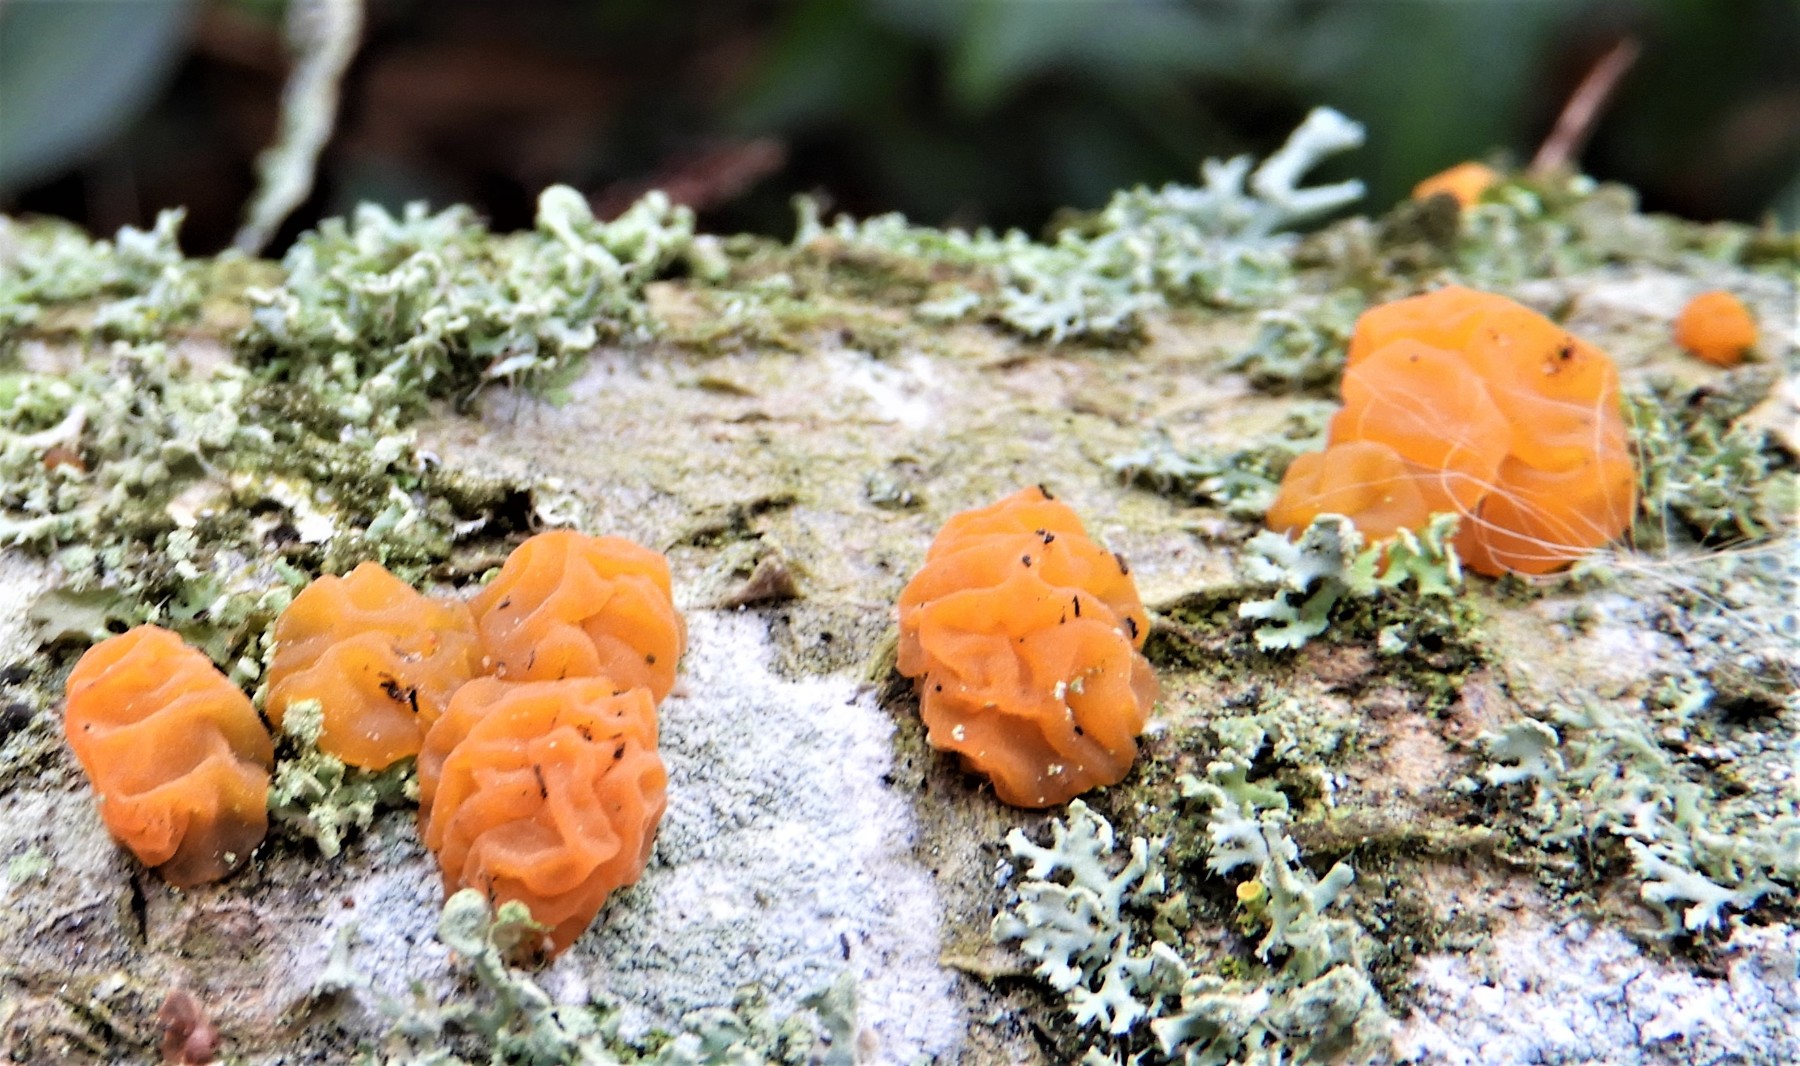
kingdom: Fungi
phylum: Basidiomycota
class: Dacrymycetes
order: Dacrymycetales
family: Dacrymycetaceae
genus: Dacrymyces
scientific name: Dacrymyces lacrymalis
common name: rynket tåresvamp
